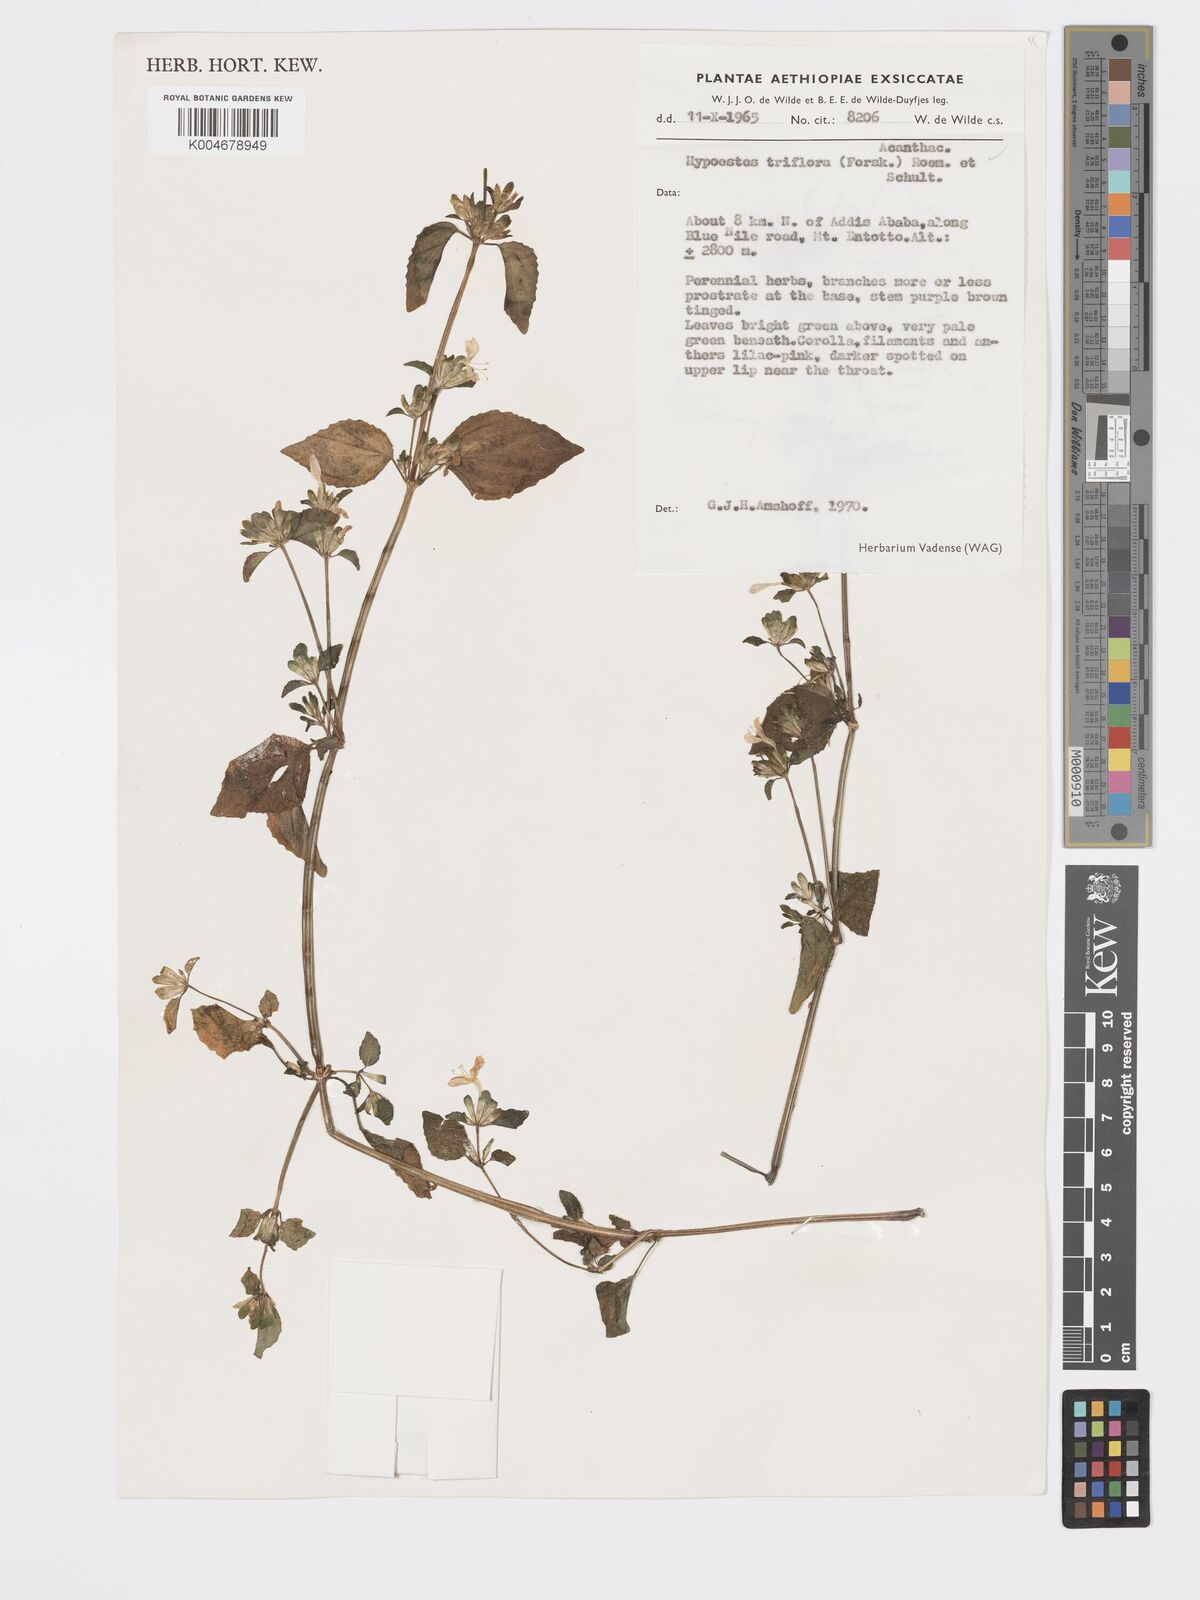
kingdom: Plantae
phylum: Tracheophyta
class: Magnoliopsida
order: Lamiales
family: Acanthaceae
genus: Hypoestes
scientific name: Hypoestes triflora
